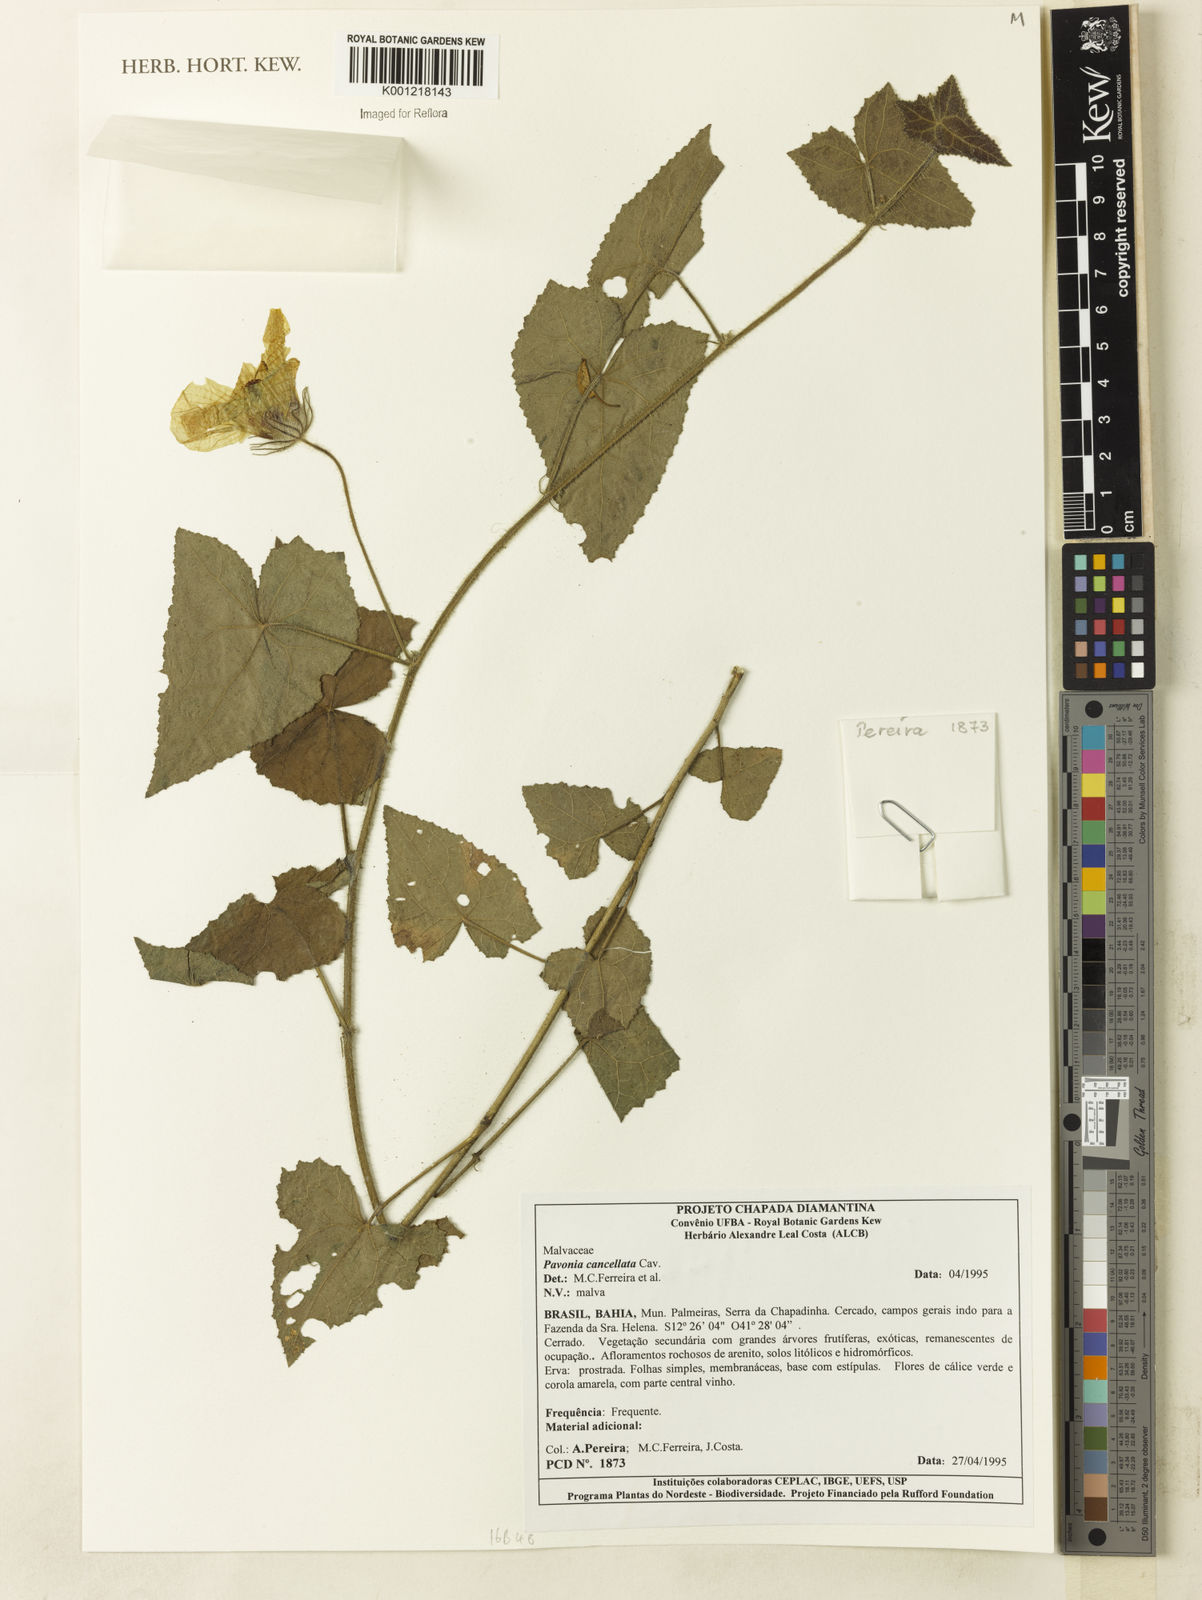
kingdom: Plantae
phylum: Tracheophyta
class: Magnoliopsida
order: Malvales
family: Malvaceae
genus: Pavonia
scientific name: Pavonia cancellata
